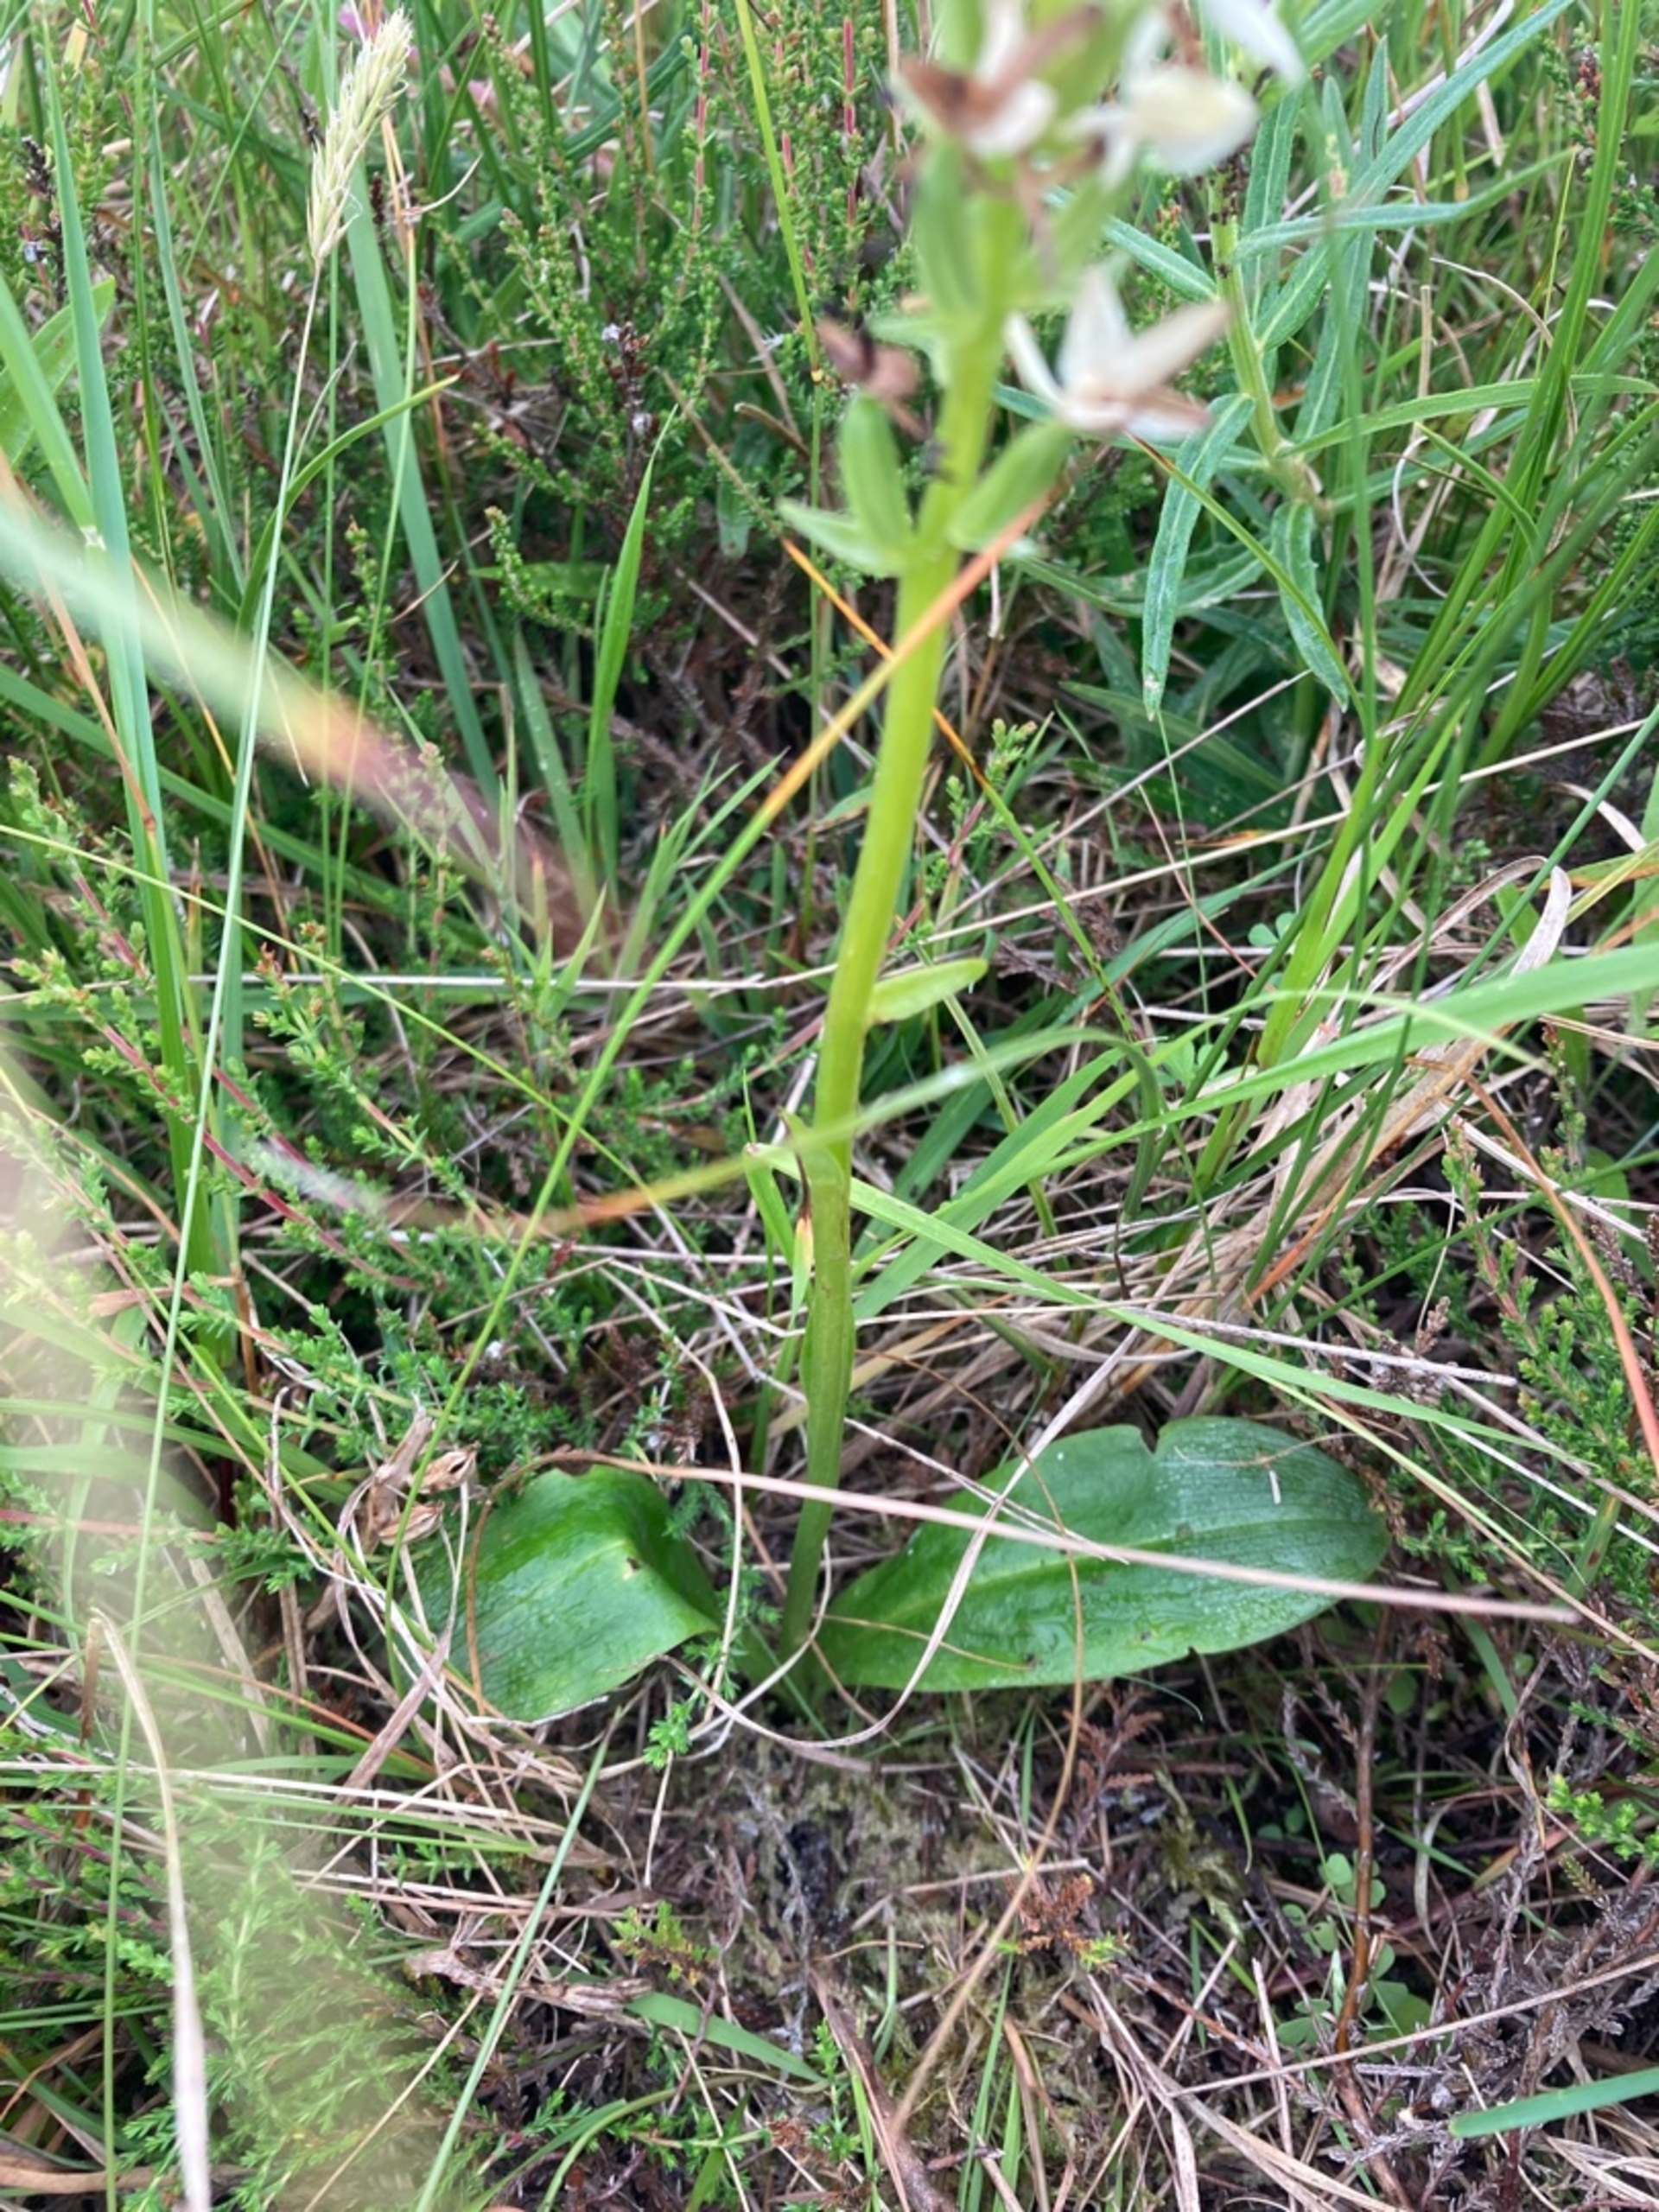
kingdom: Plantae
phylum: Tracheophyta
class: Liliopsida
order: Asparagales
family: Orchidaceae
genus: Platanthera
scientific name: Platanthera bifolia
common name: Bakke-gøgelilje
